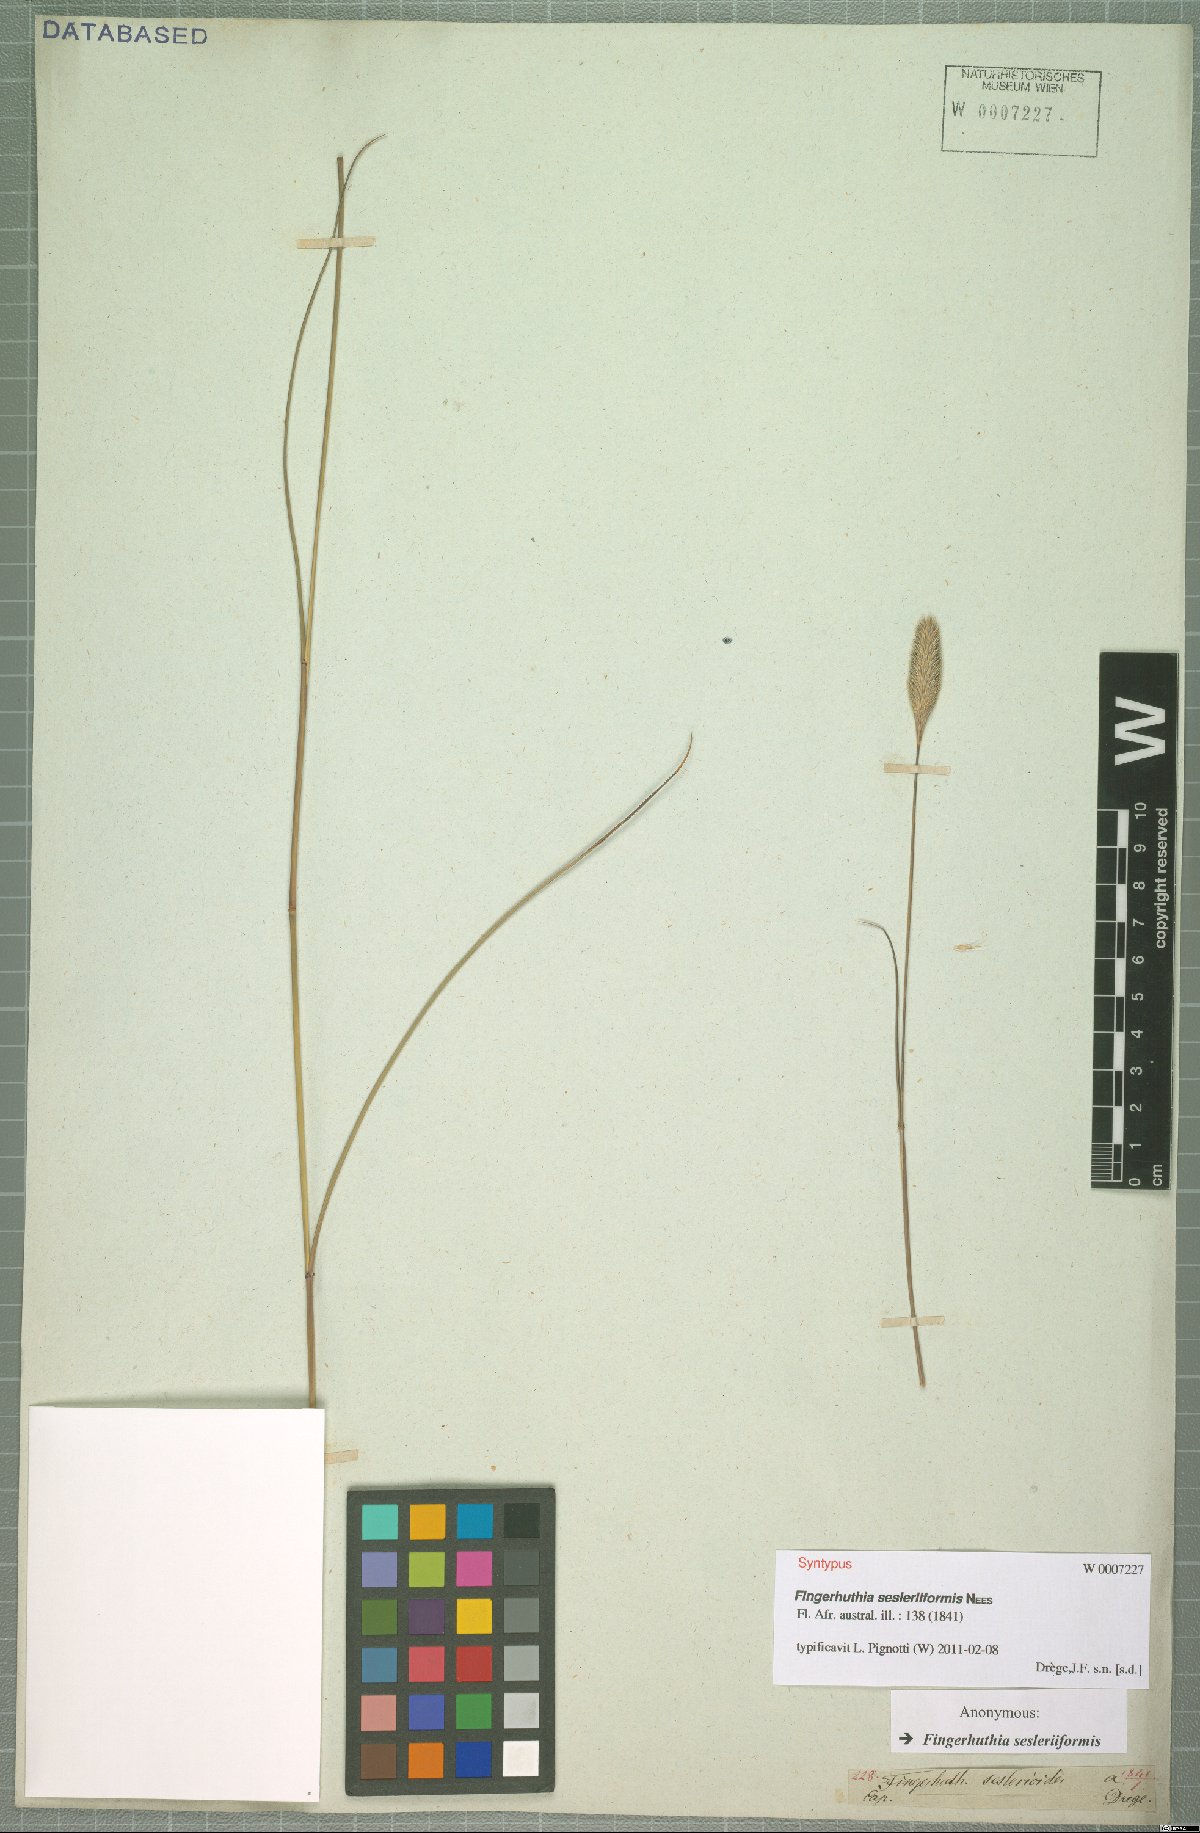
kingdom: Plantae
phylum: Tracheophyta
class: Liliopsida
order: Poales
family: Poaceae
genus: Fingerhuthia
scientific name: Fingerhuthia sesleriiformis
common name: Thimble grass
